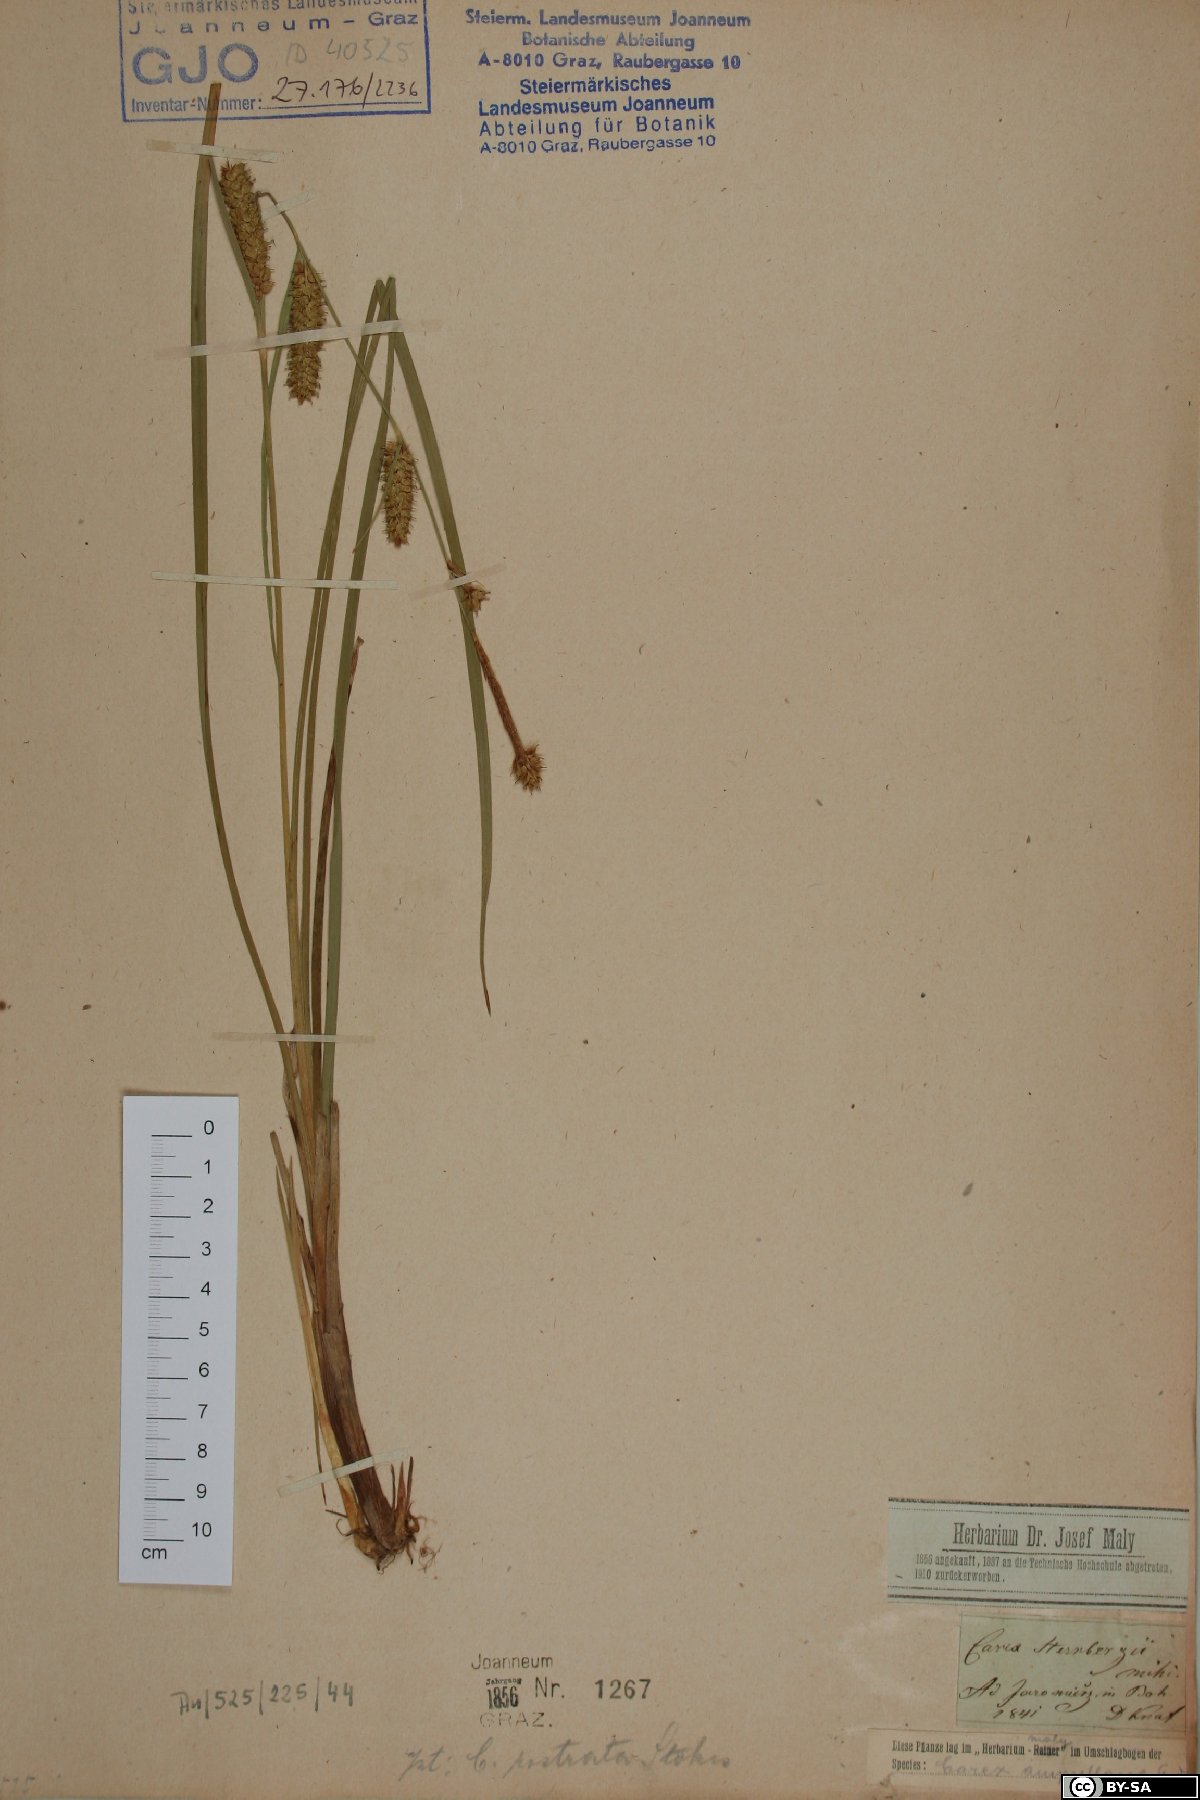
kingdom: Plantae
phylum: Tracheophyta
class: Liliopsida
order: Poales
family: Cyperaceae
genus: Carex
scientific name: Carex rostrata
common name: Bottle sedge
